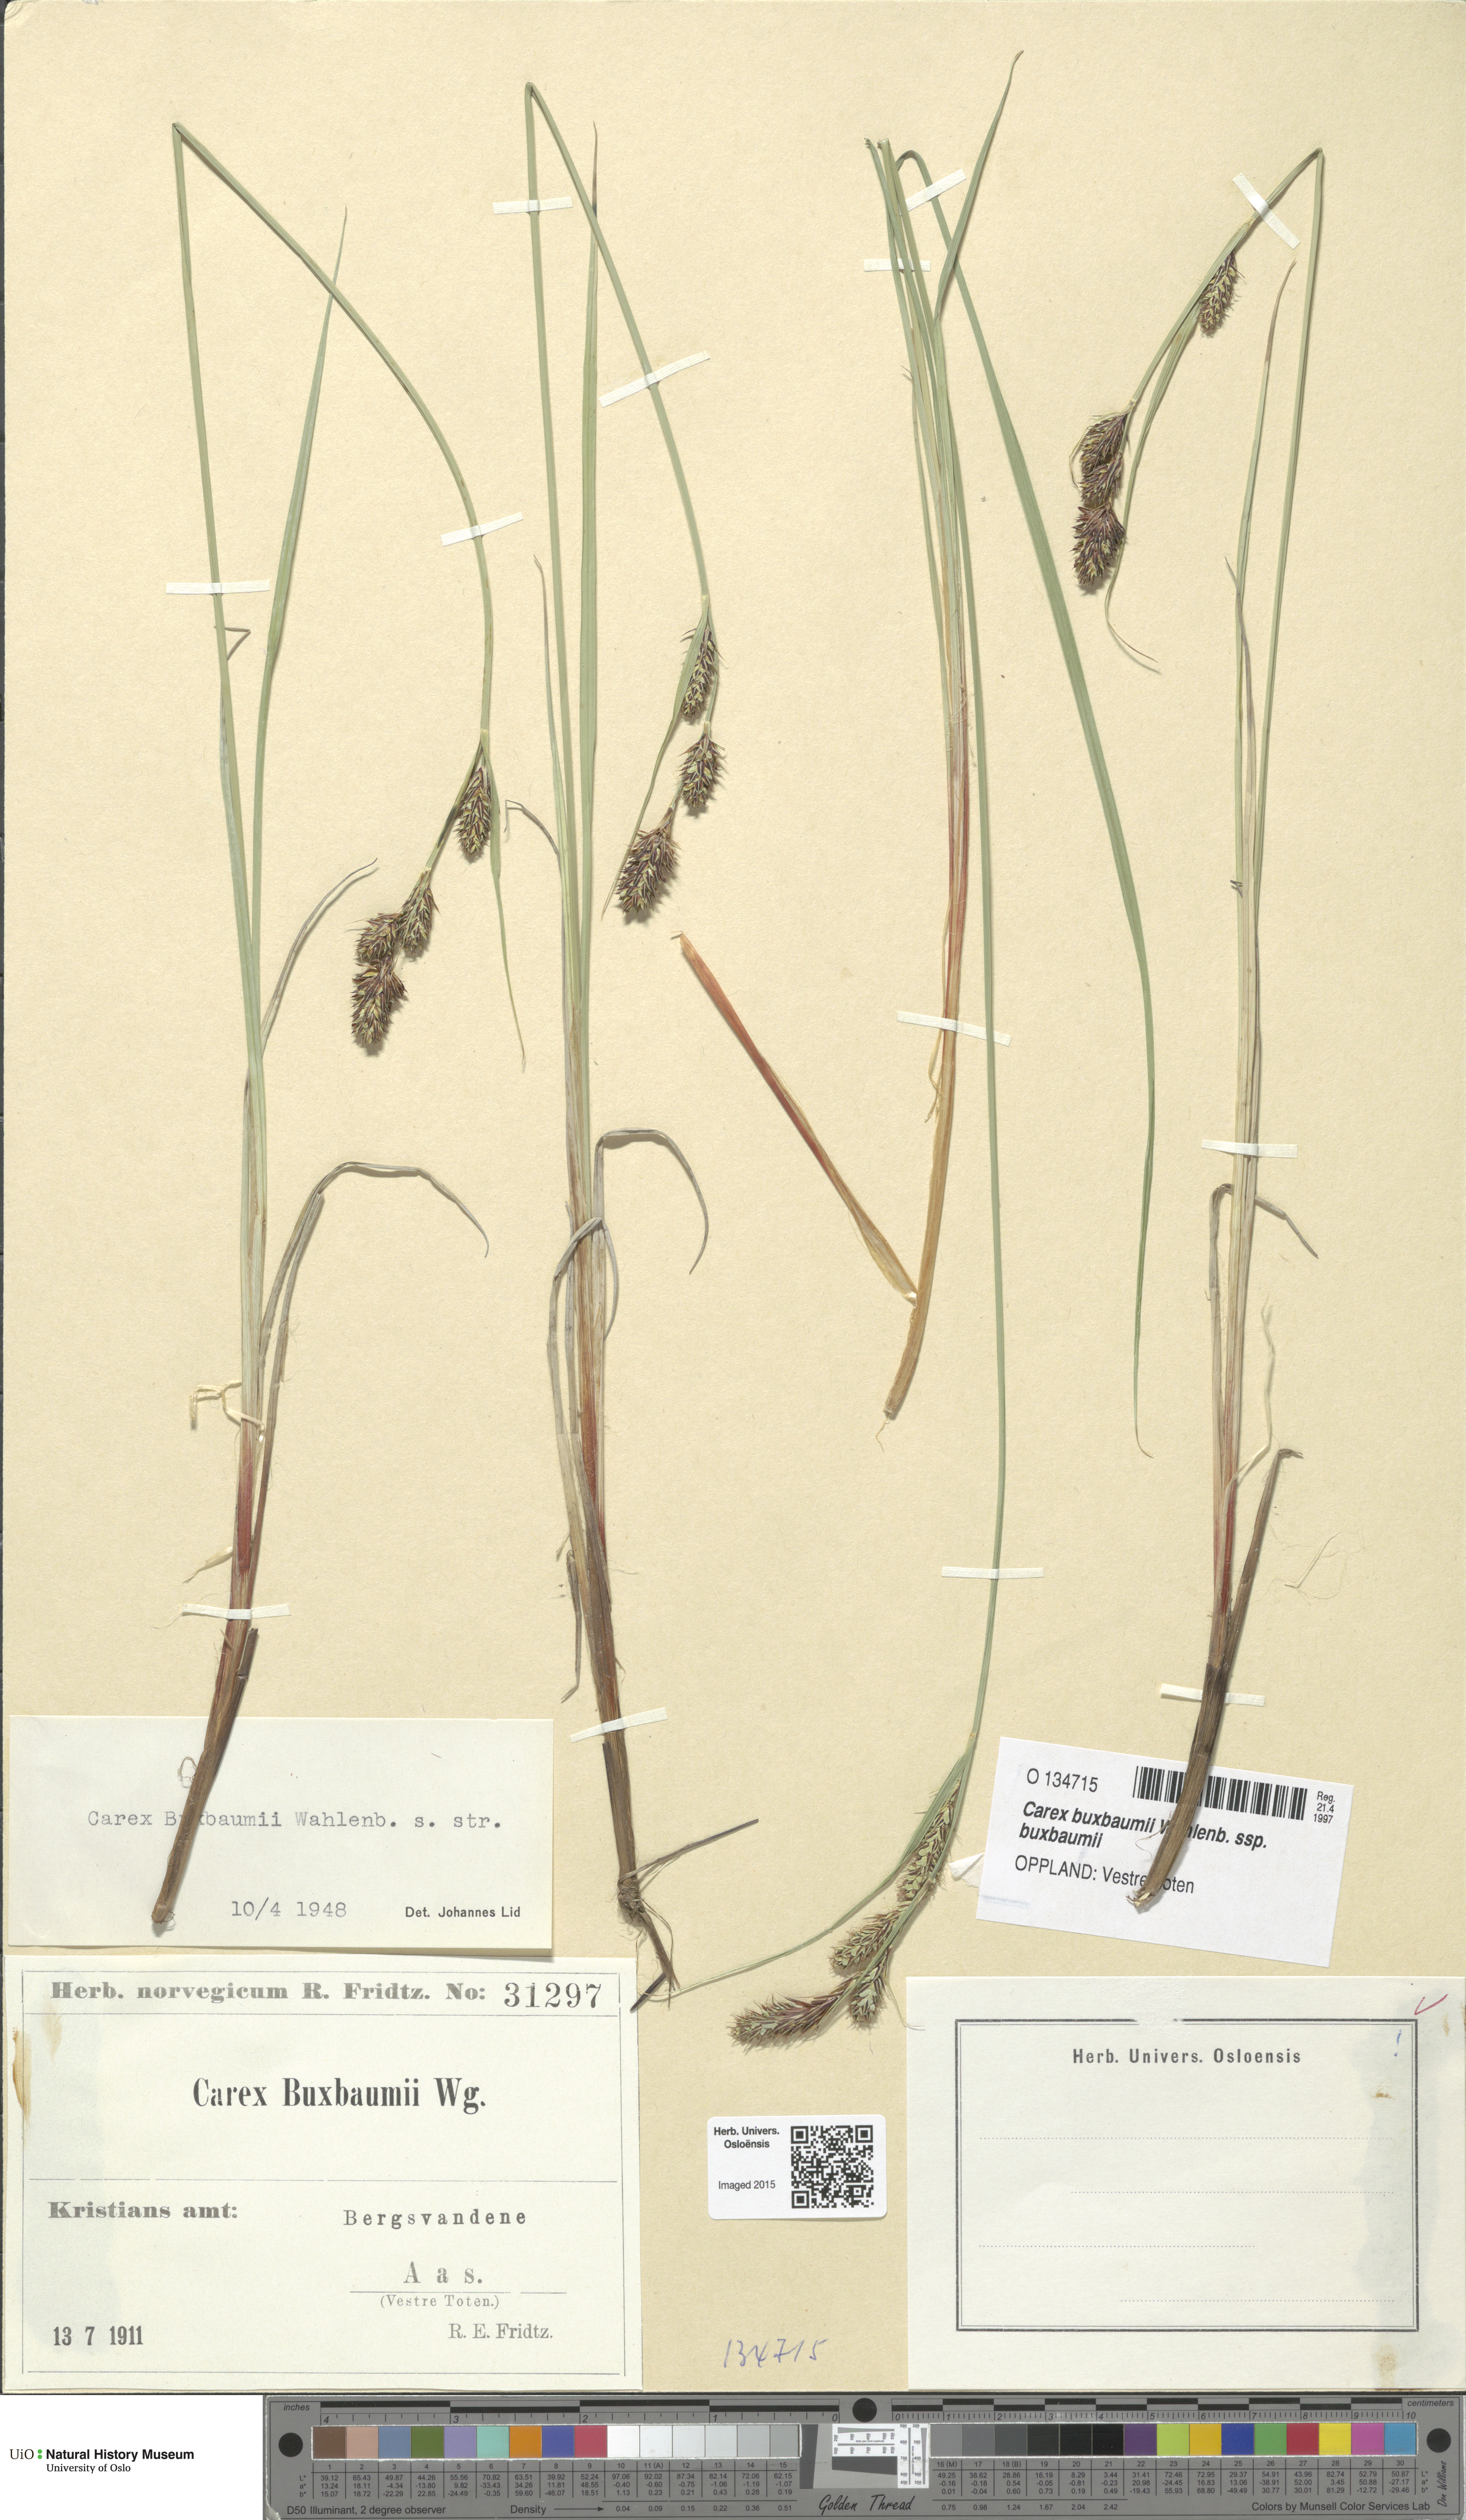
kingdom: Plantae
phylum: Tracheophyta
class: Liliopsida
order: Poales
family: Cyperaceae
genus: Carex
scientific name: Carex buxbaumii
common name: Club sedge
